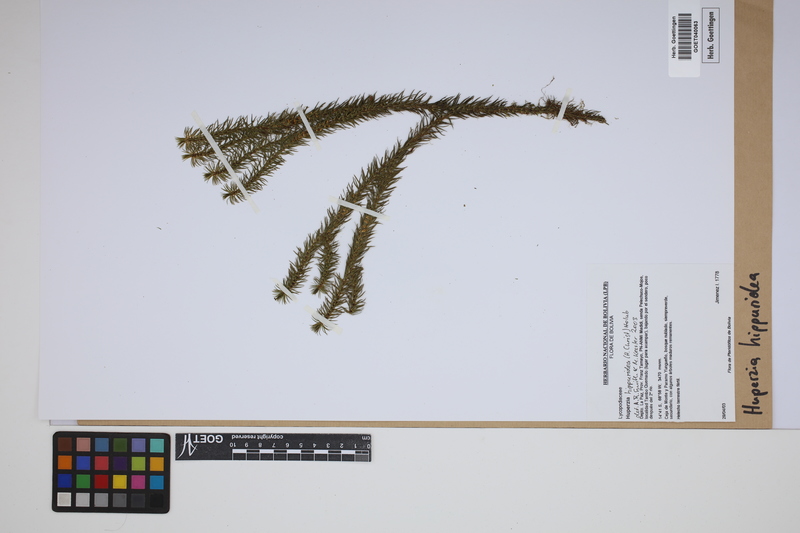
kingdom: Plantae
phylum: Tracheophyta
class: Lycopodiopsida
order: Lycopodiales
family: Lycopodiaceae
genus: Phlegmariurus
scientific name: Phlegmariurus hippurideus
